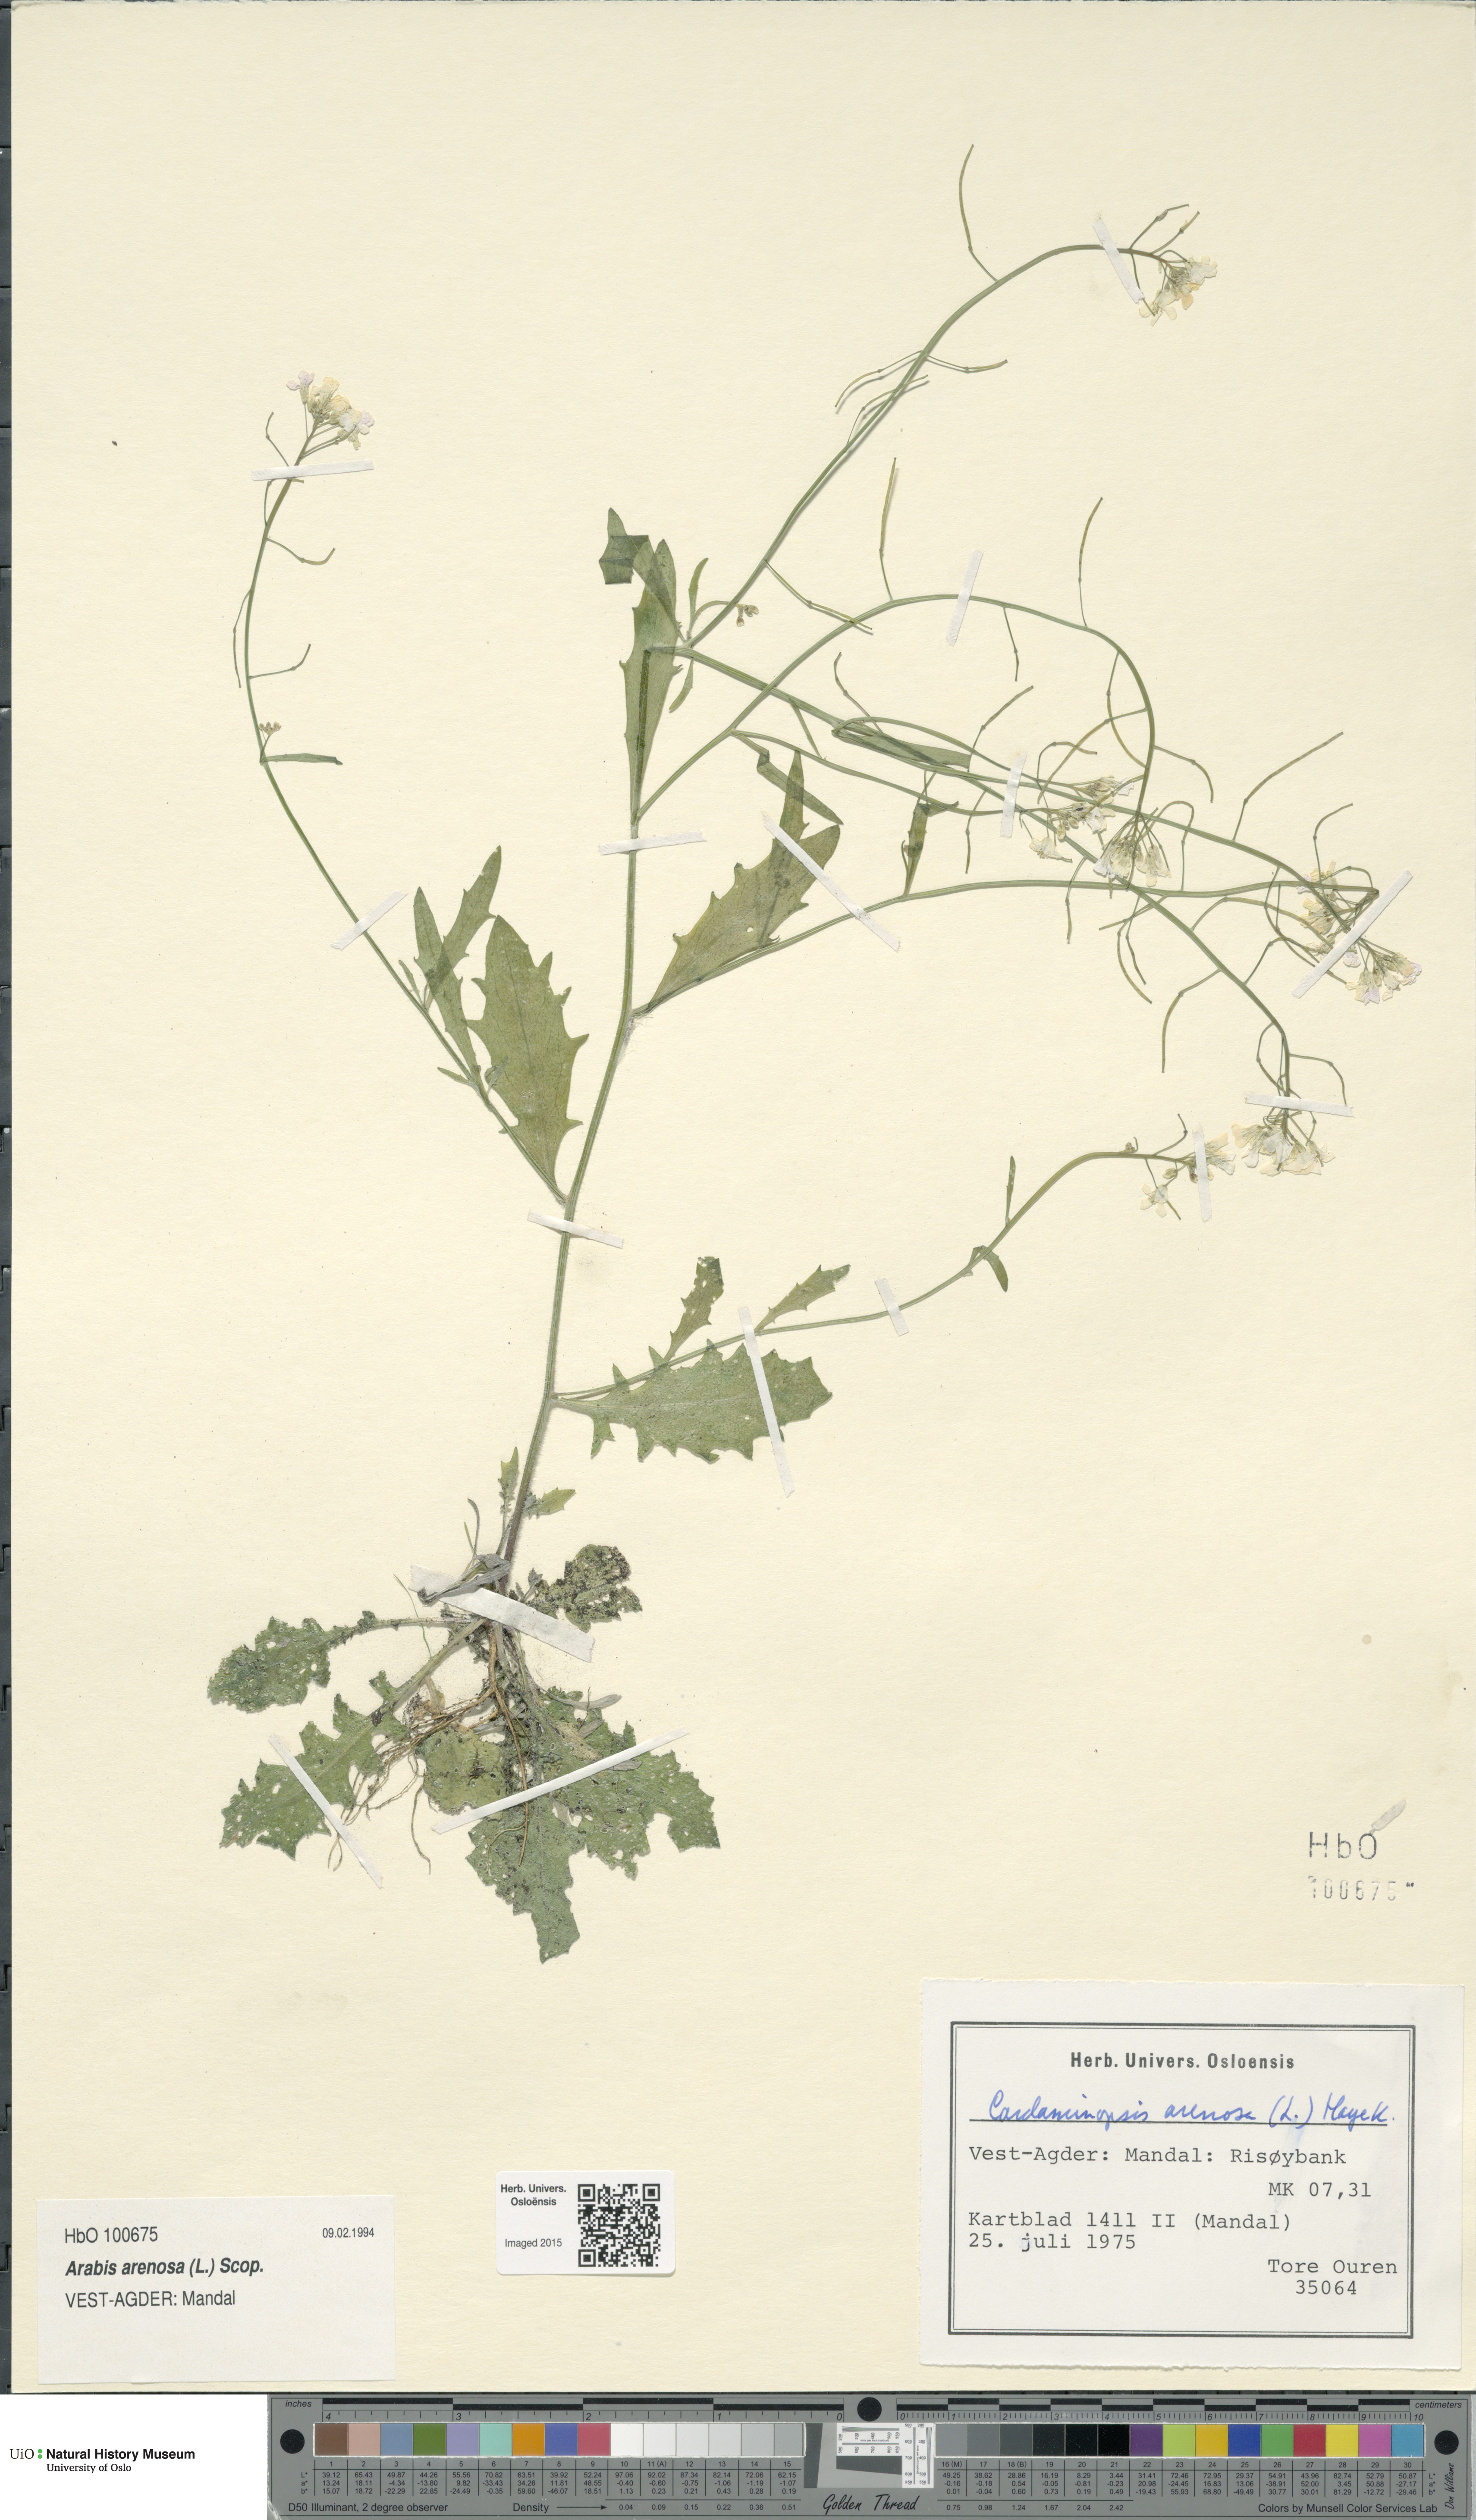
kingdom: Plantae
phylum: Tracheophyta
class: Magnoliopsida
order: Brassicales
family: Brassicaceae
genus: Arabidopsis
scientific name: Arabidopsis arenosa
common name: Sand rock-cress
